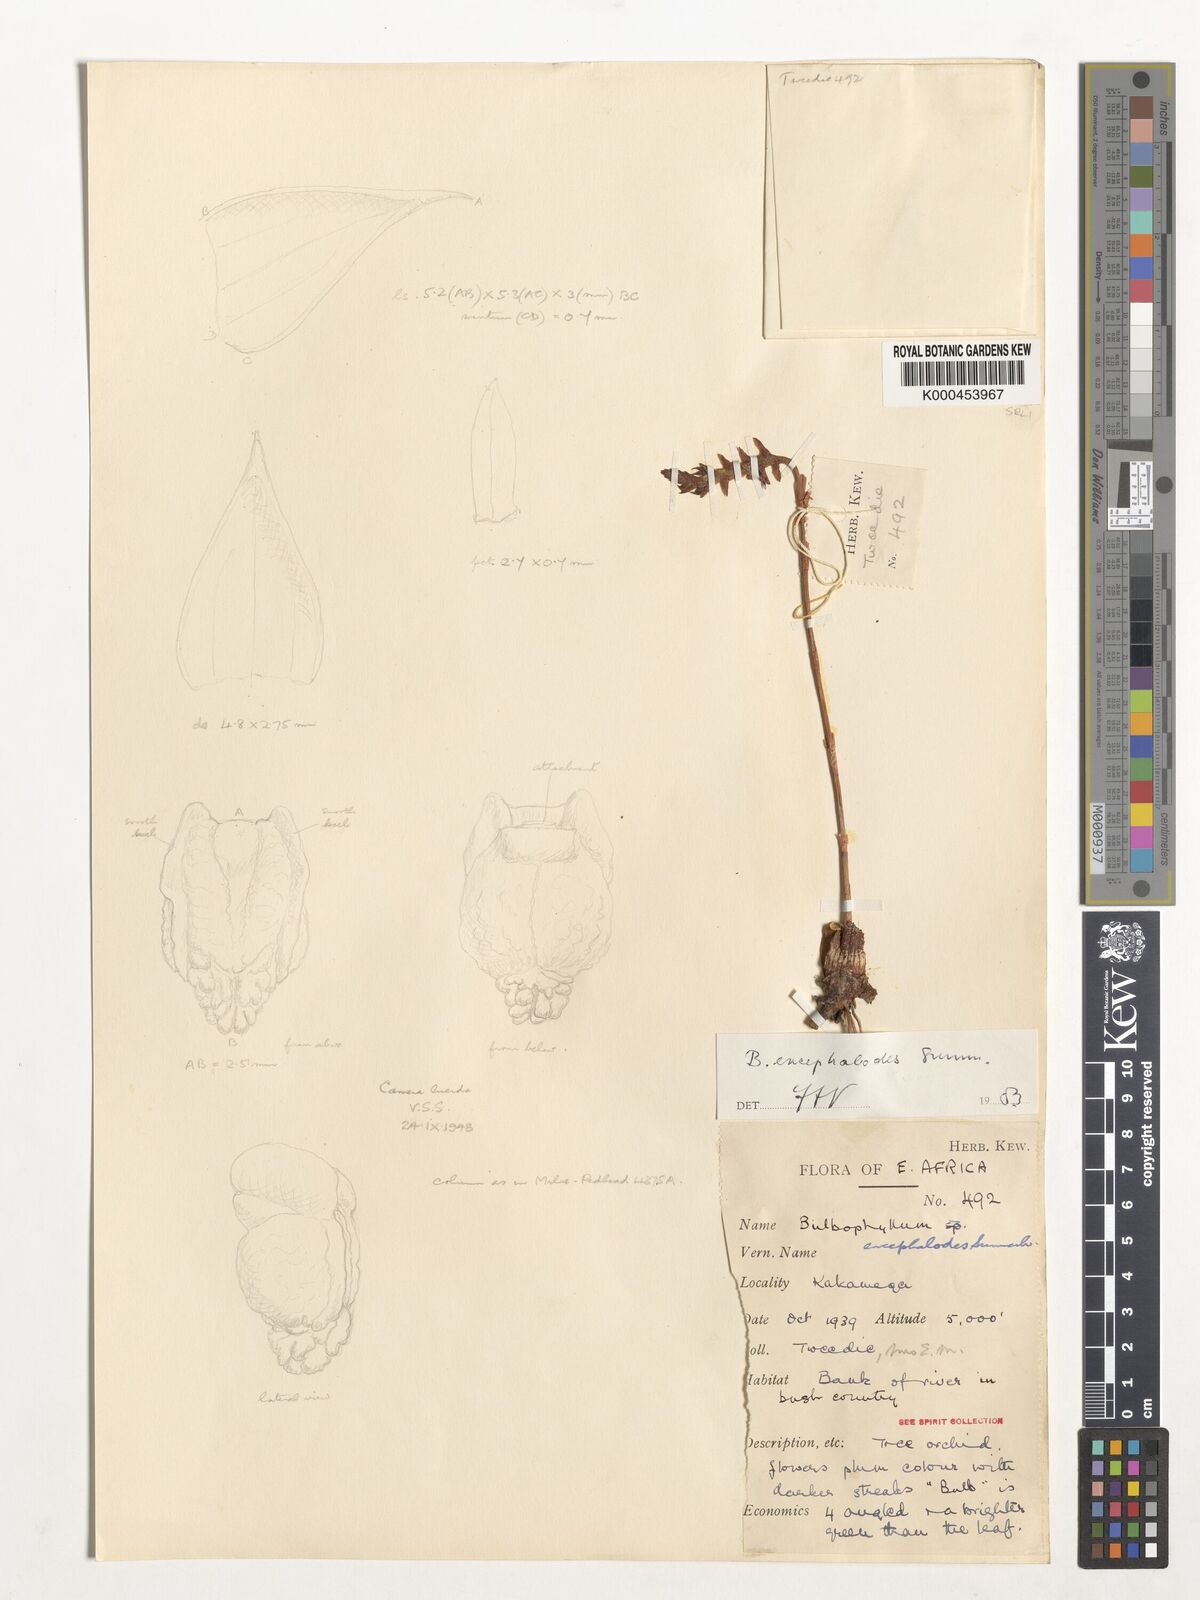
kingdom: Plantae
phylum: Tracheophyta
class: Liliopsida
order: Asparagales
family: Orchidaceae
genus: Bulbophyllum
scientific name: Bulbophyllum encephalodes
